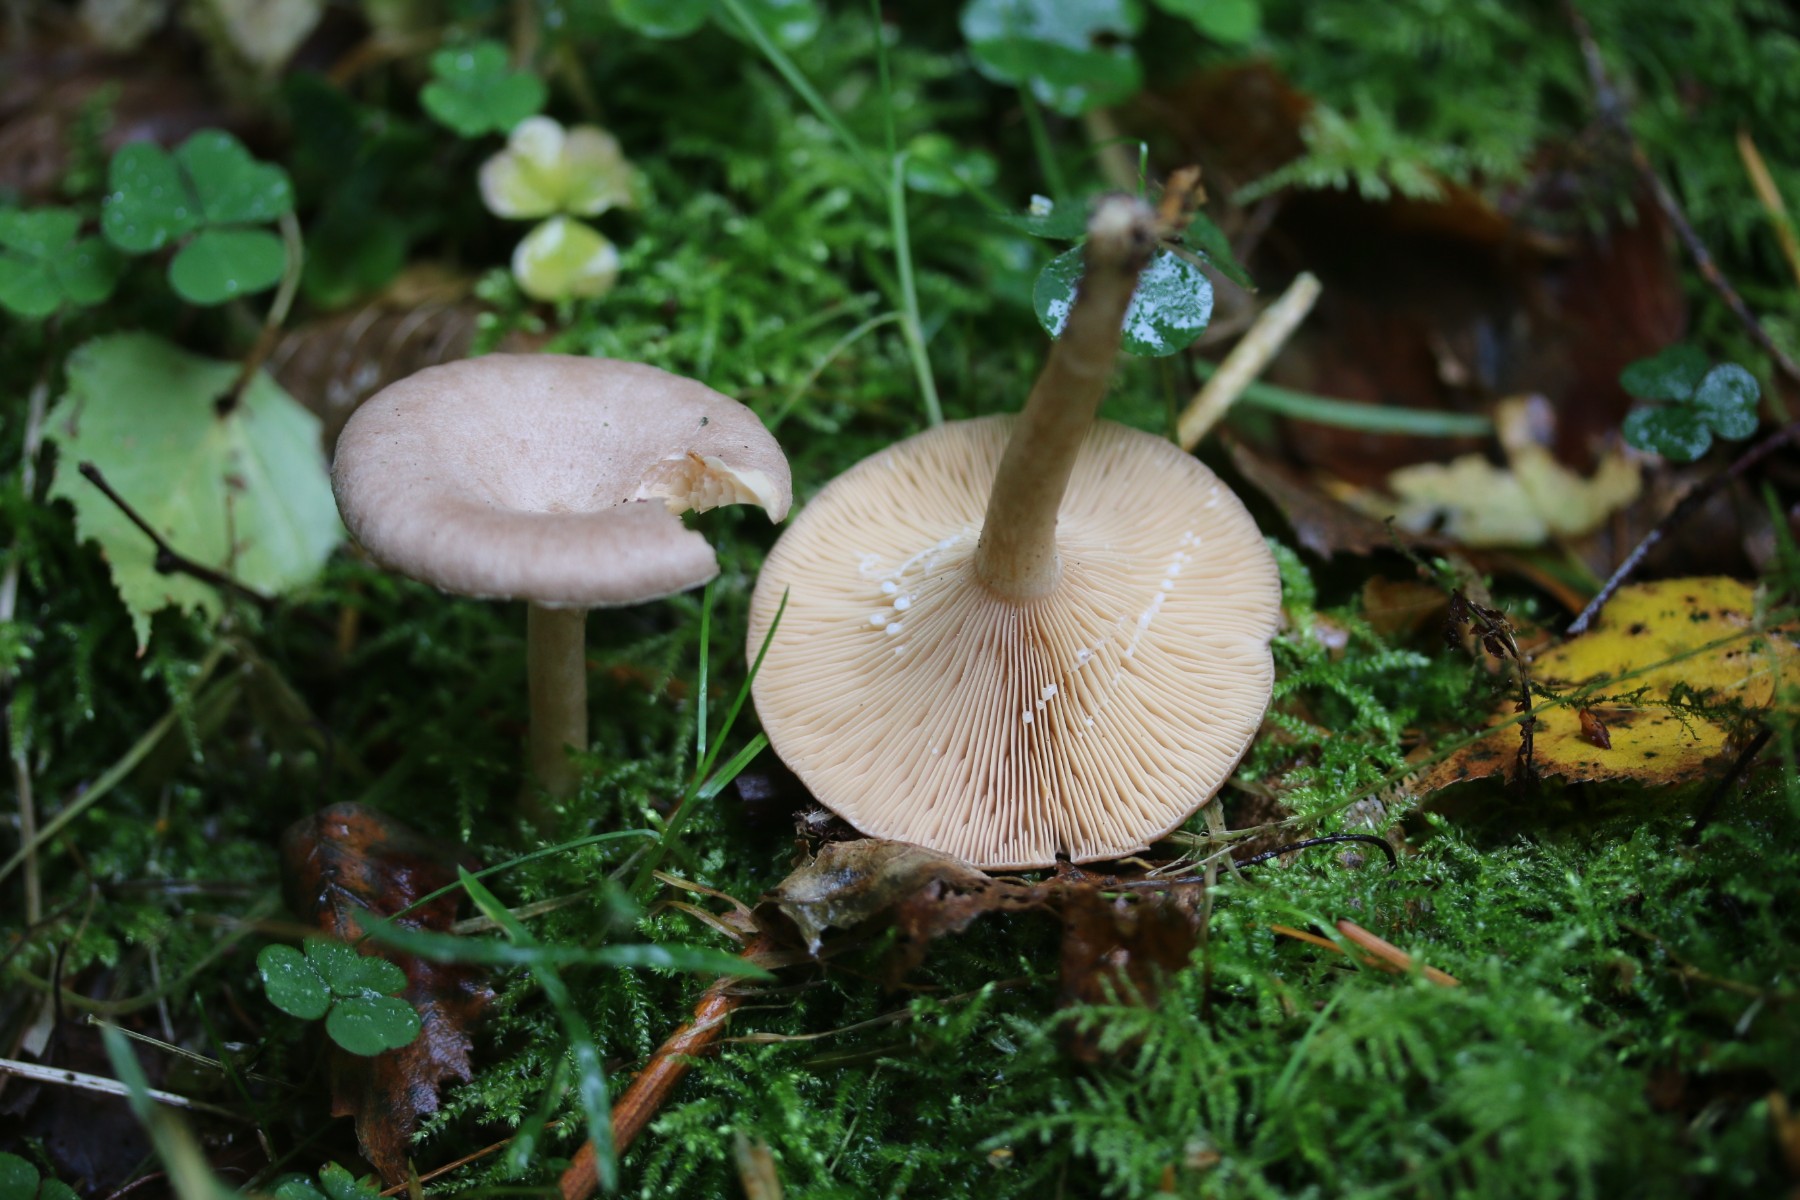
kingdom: Fungi
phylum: Basidiomycota
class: Agaricomycetes
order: Russulales
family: Russulaceae
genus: Lactarius
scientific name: Lactarius glyciosmus
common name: kokos-mælkehat
